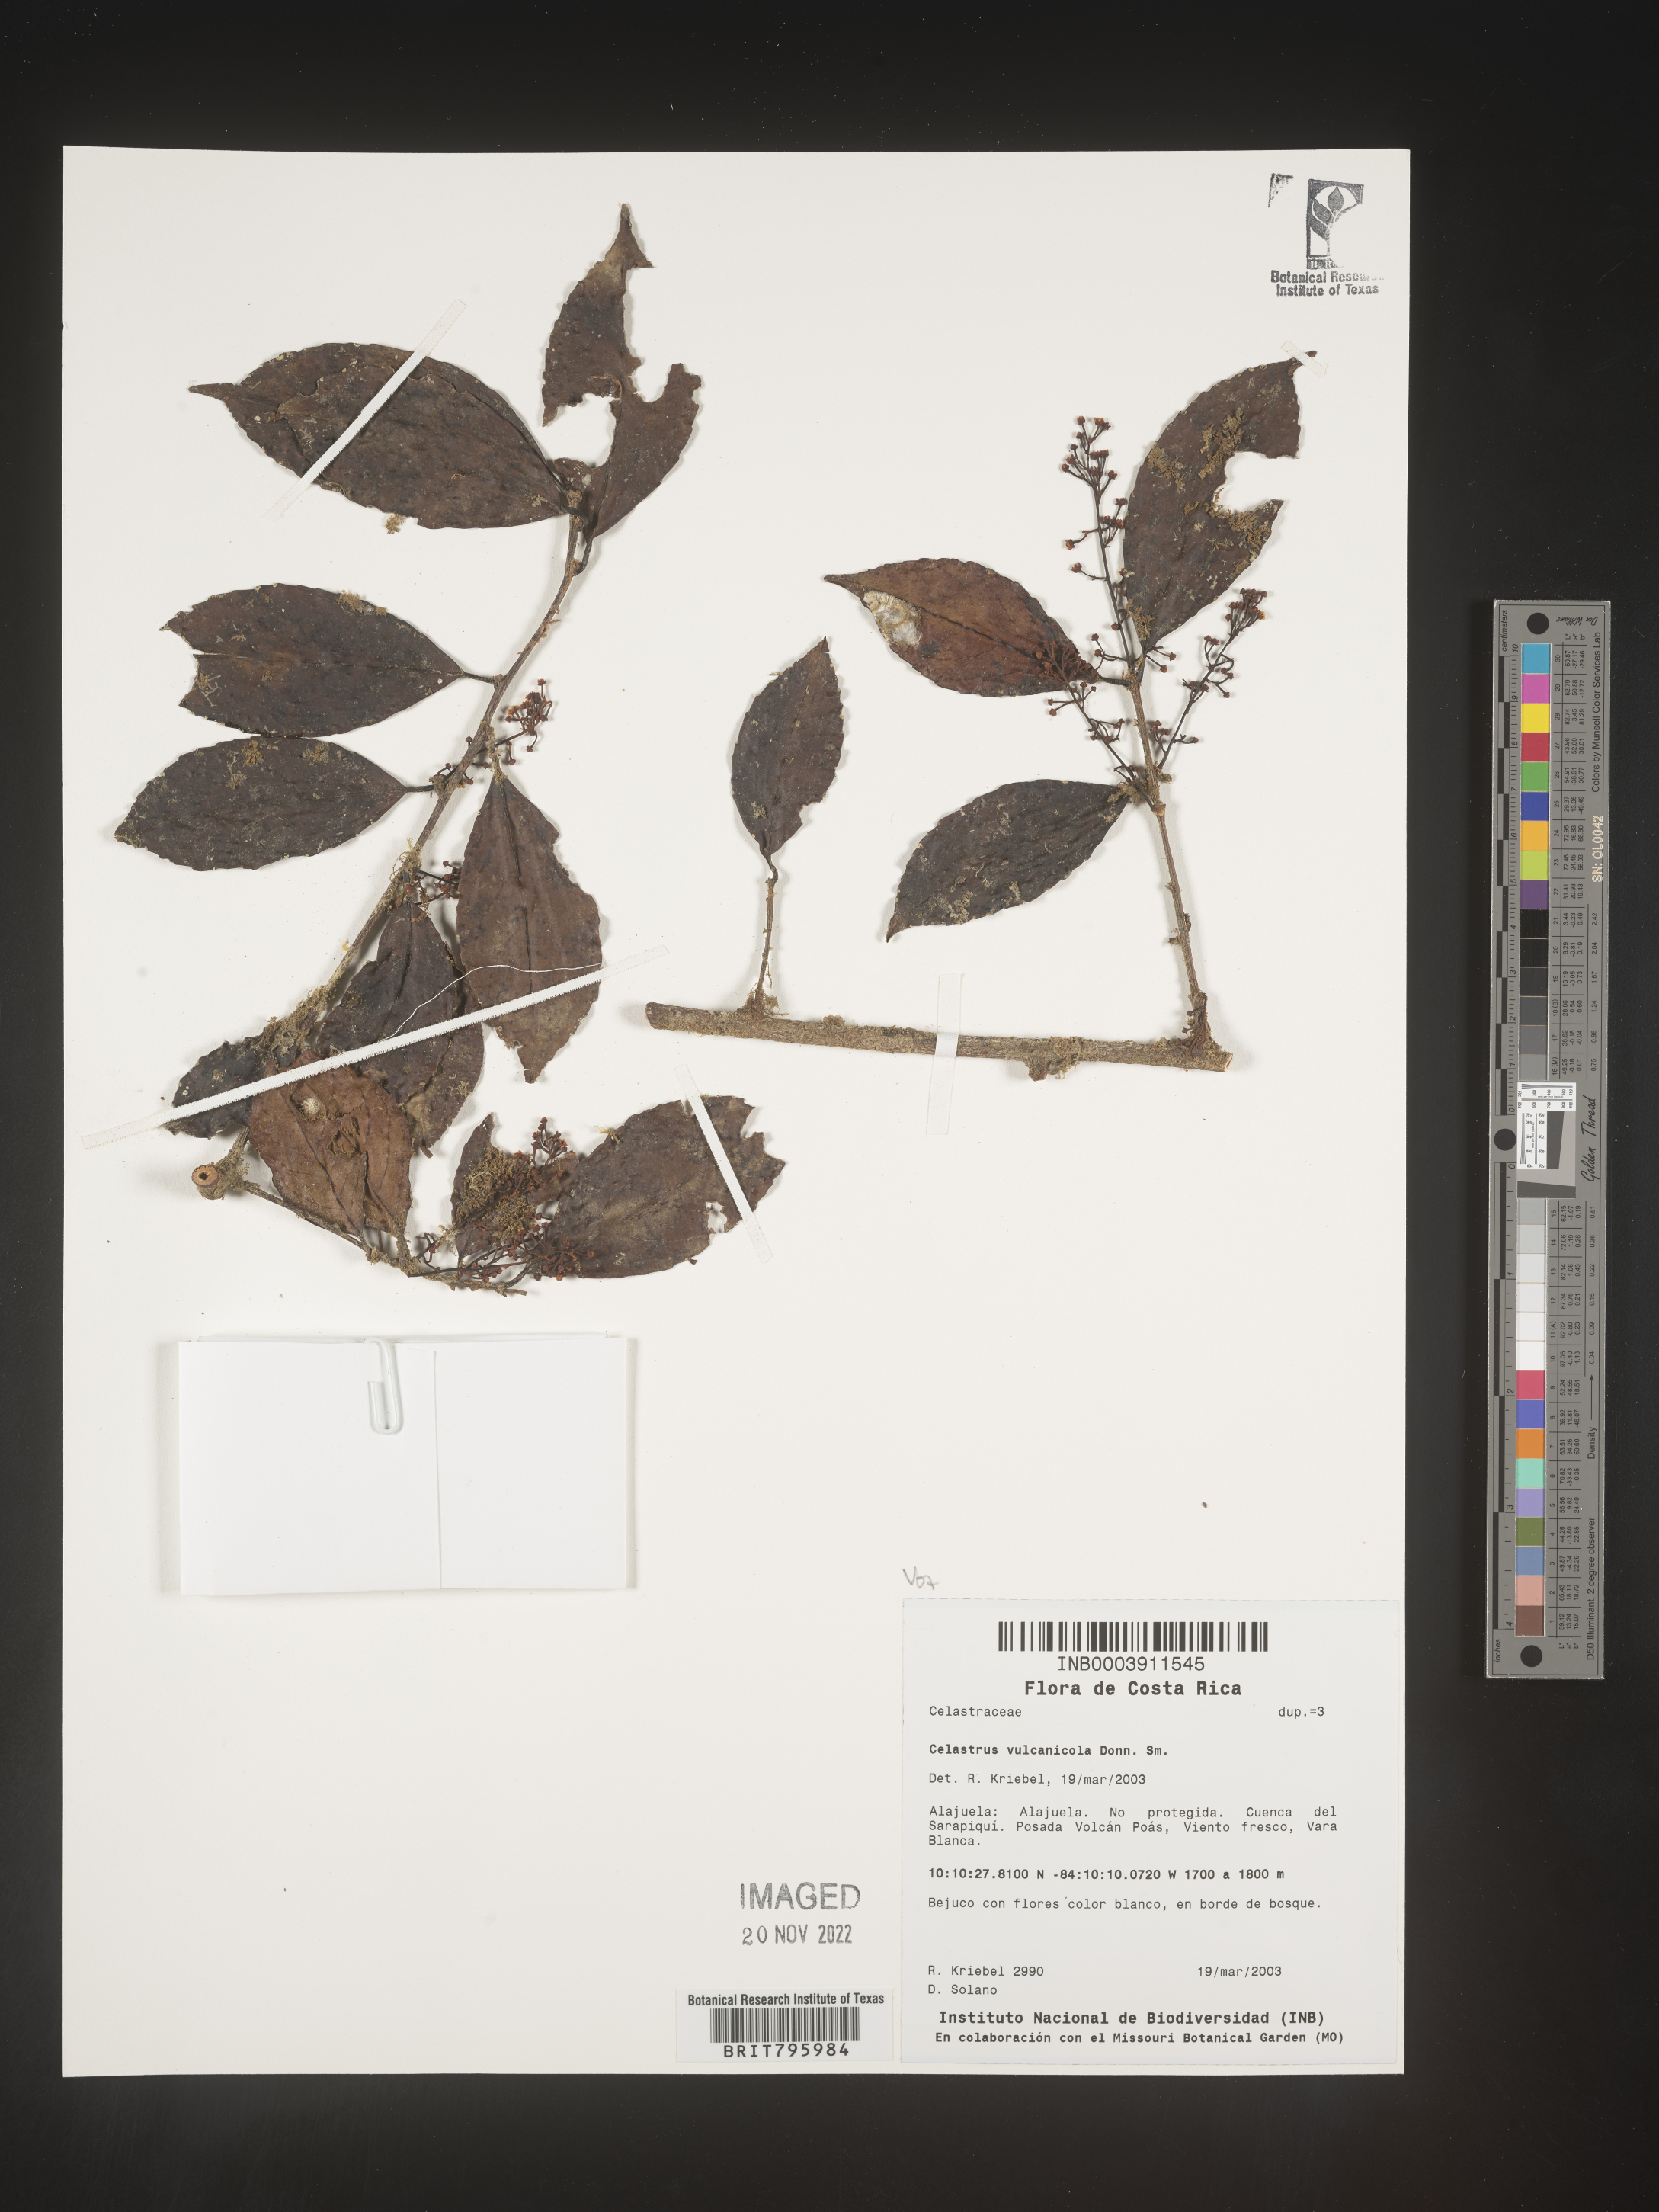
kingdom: Plantae
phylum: Tracheophyta
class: Magnoliopsida
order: Celastrales
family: Celastraceae
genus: Celastrus
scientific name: Celastrus
